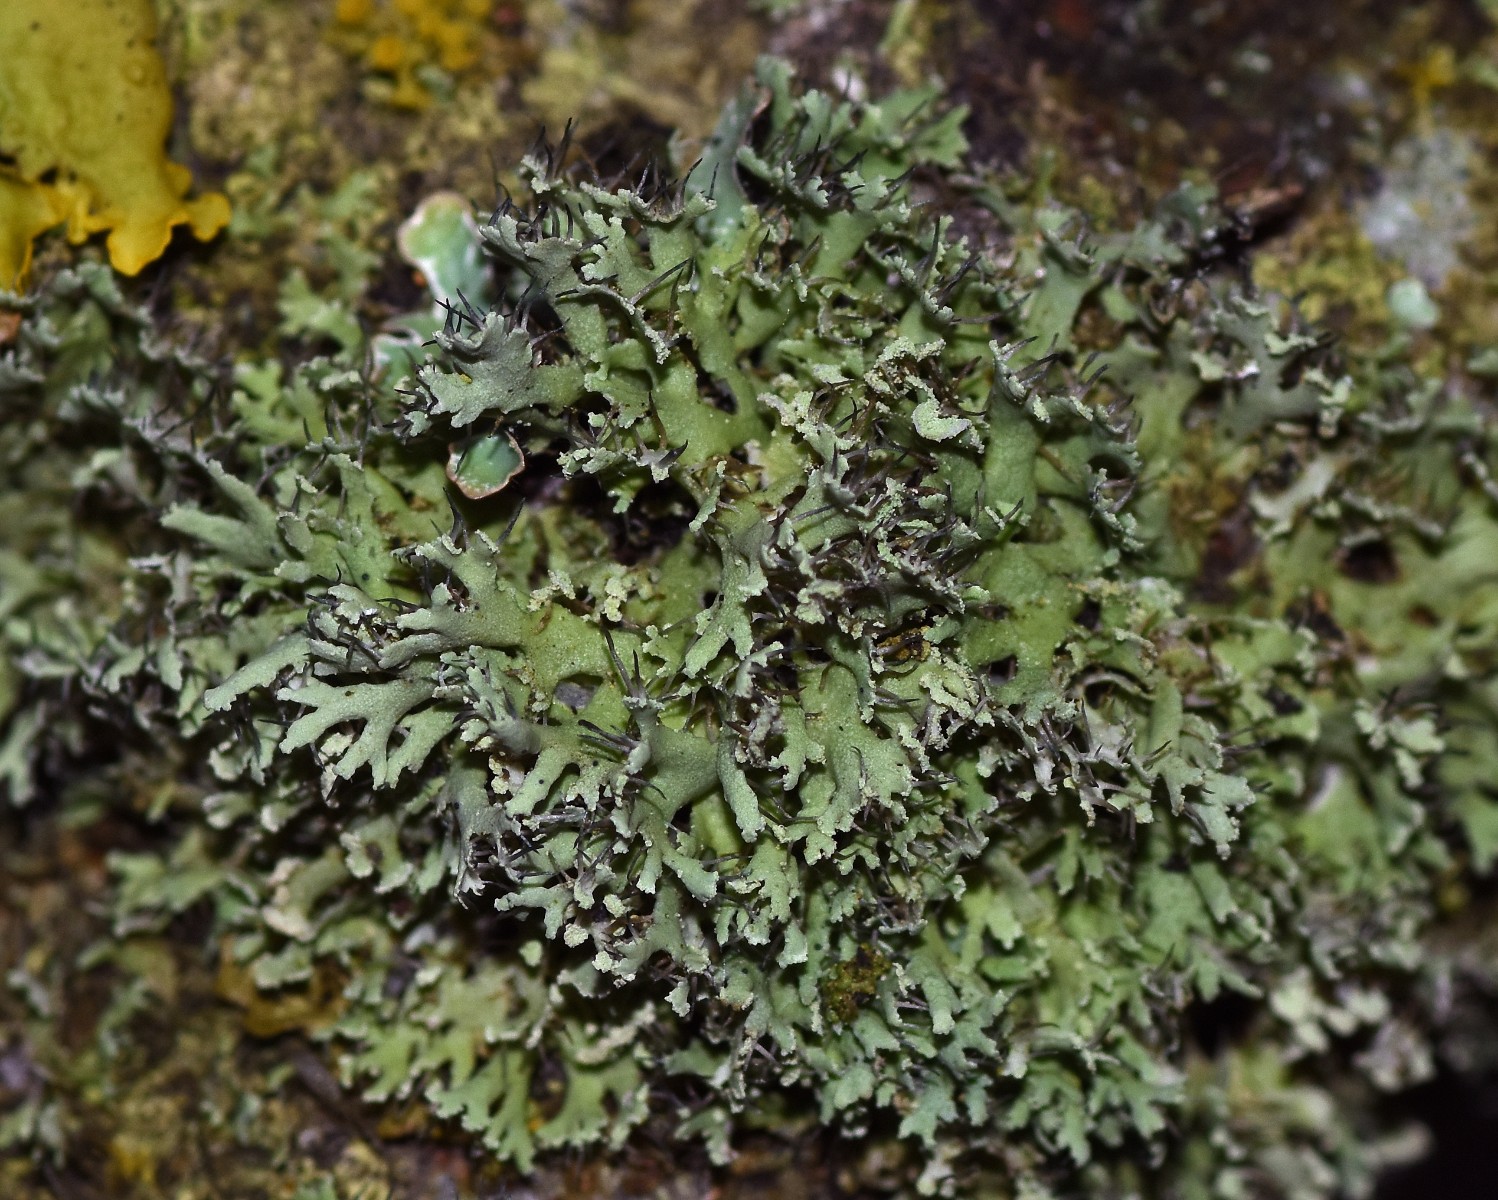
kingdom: Fungi
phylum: Ascomycota
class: Lecanoromycetes
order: Caliciales
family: Physciaceae
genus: Physcia
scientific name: Physcia tenella
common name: spæd rosetlav
